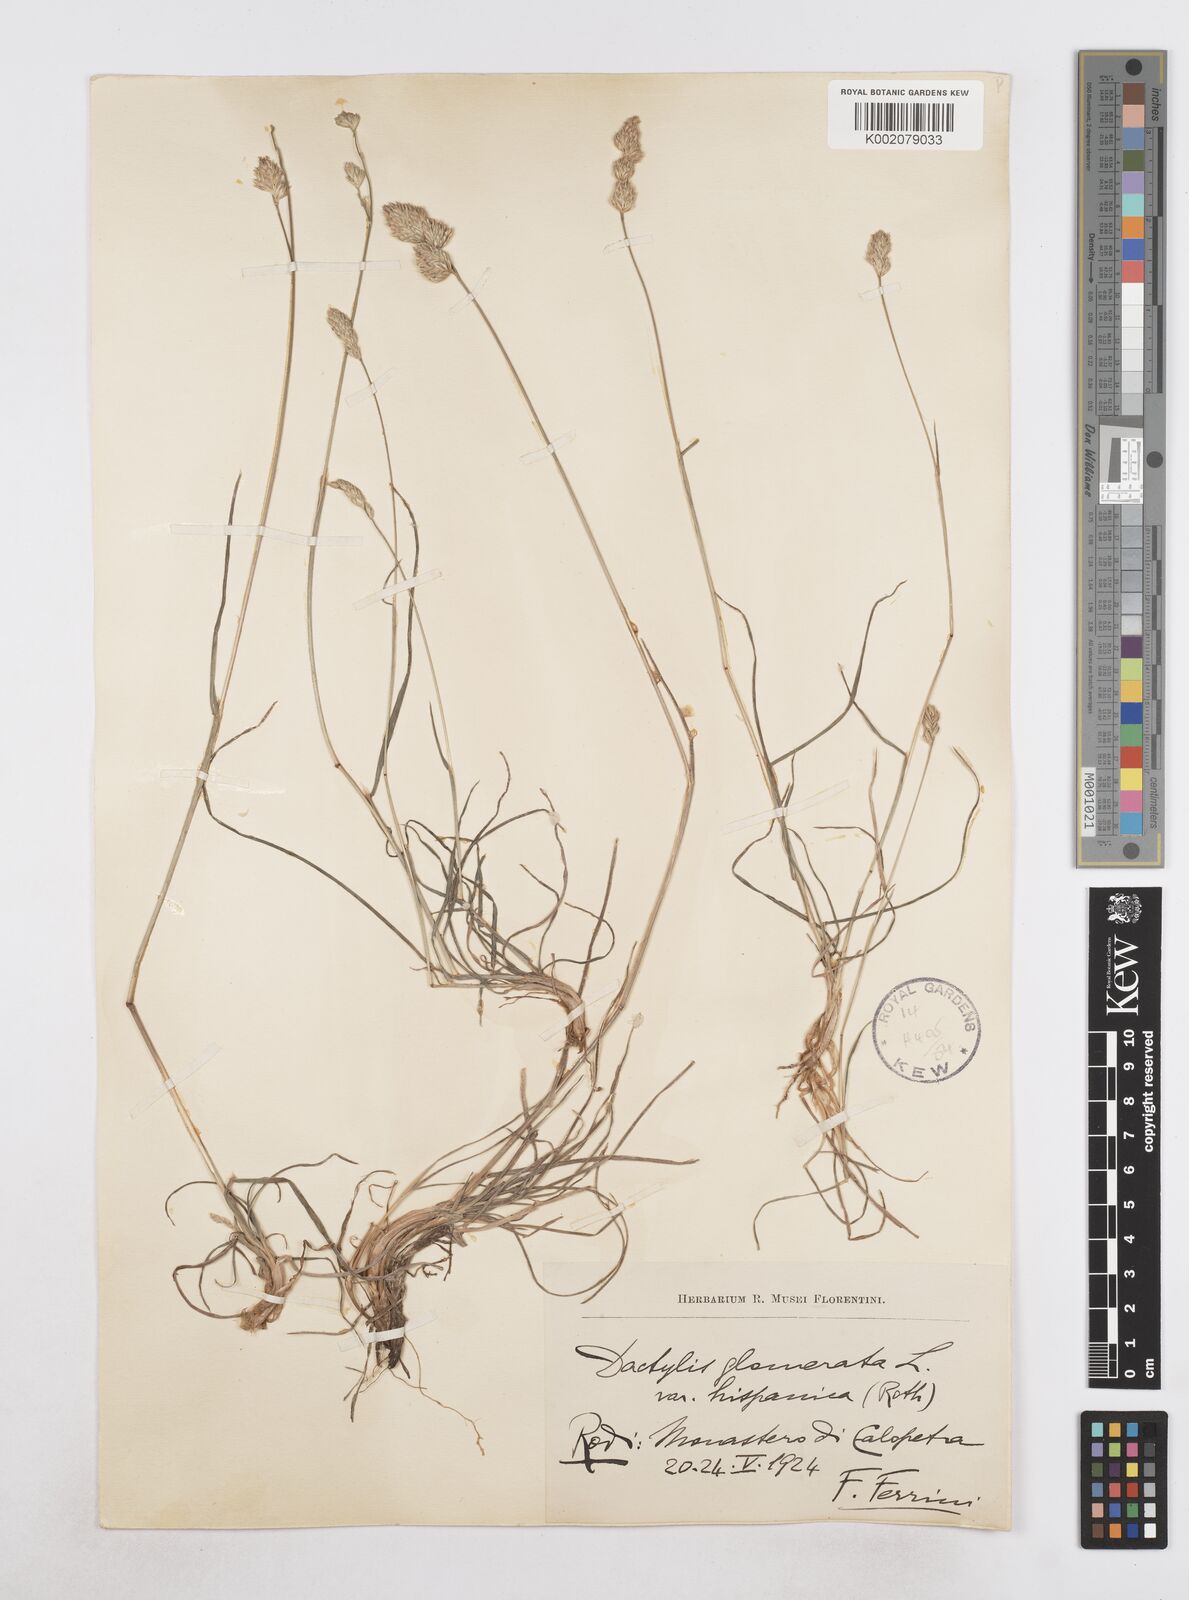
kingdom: Plantae
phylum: Tracheophyta
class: Liliopsida
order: Poales
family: Poaceae
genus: Dactylis
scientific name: Dactylis glomerata
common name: Orchardgrass
